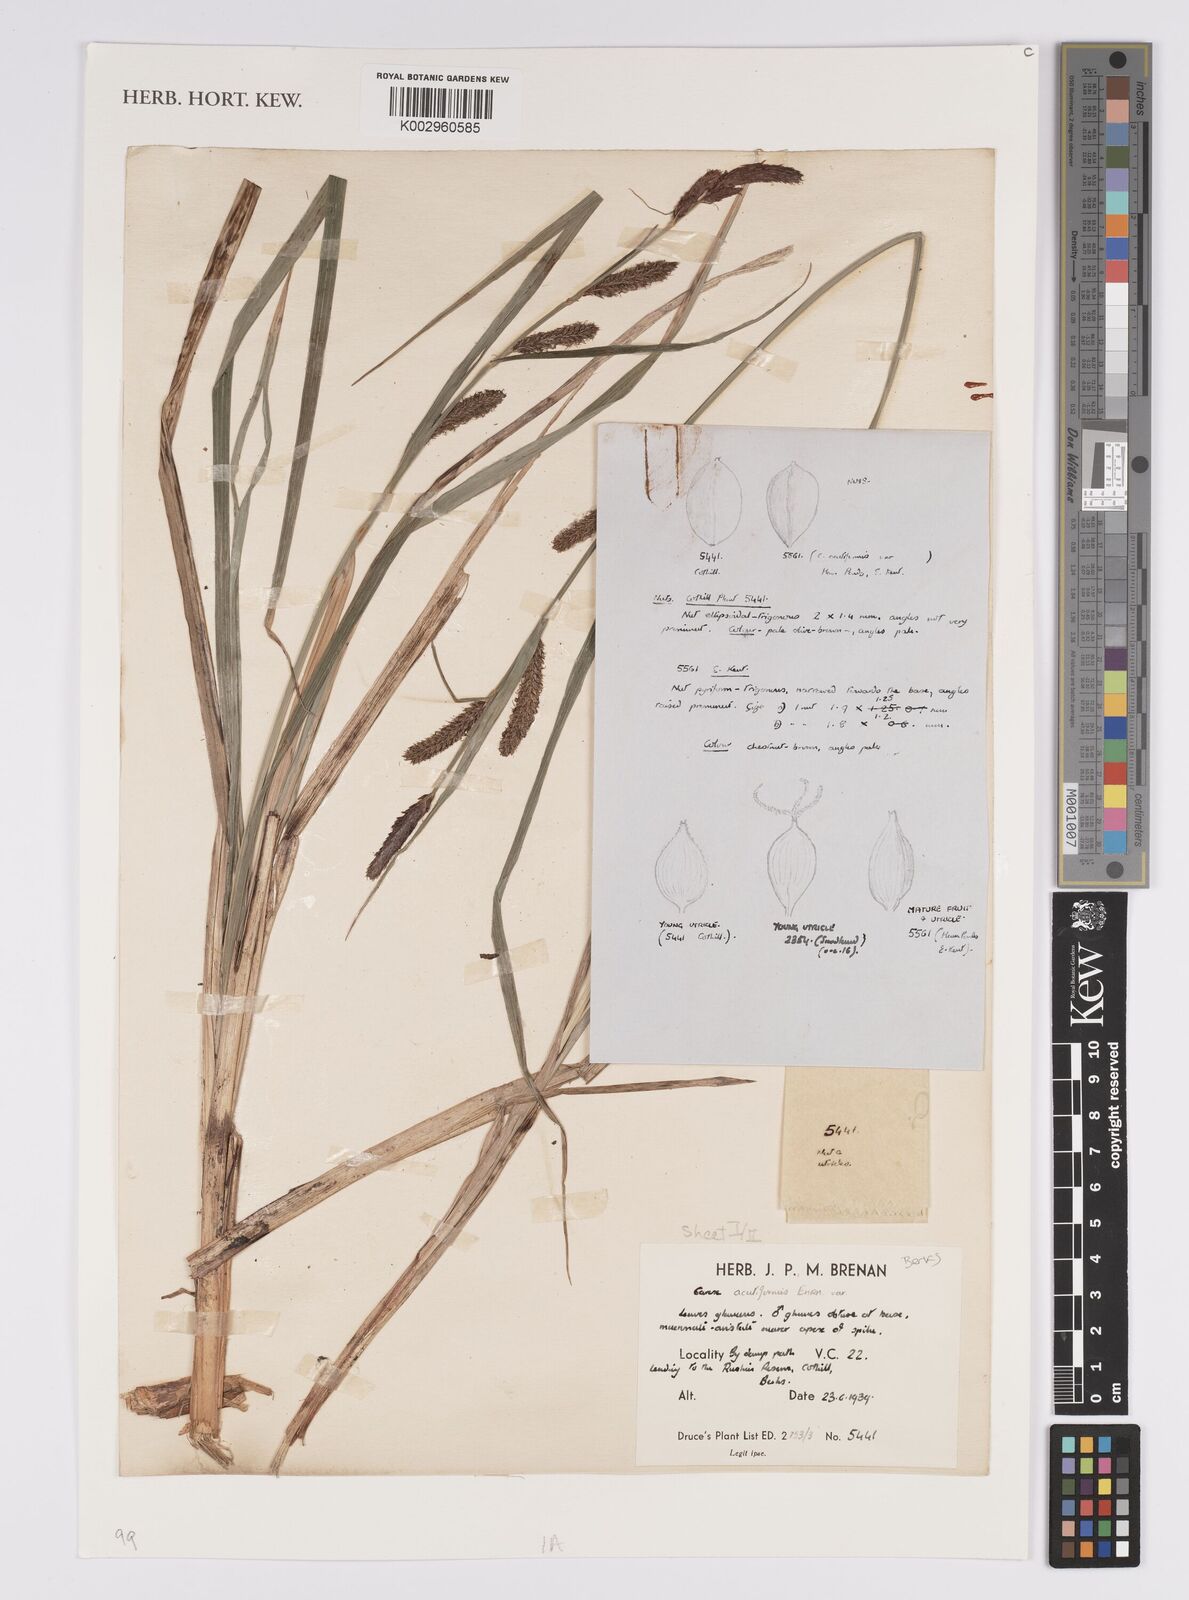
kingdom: Plantae
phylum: Tracheophyta
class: Liliopsida
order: Poales
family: Cyperaceae
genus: Carex
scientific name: Carex acutiformis
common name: Lesser pond-sedge
